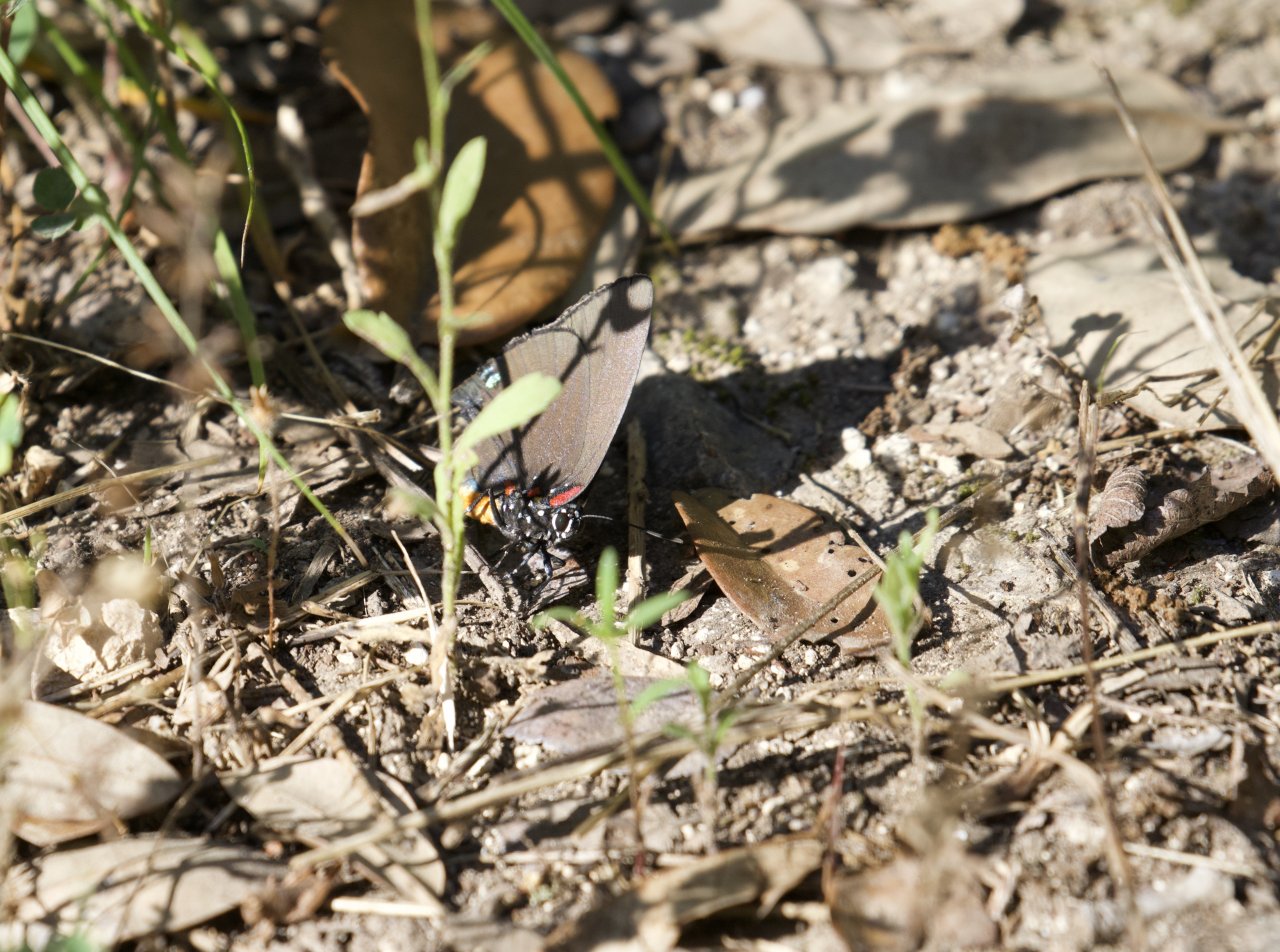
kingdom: Animalia
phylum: Arthropoda
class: Insecta
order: Lepidoptera
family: Lycaenidae
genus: Atlides
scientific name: Atlides halesus
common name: Great Purple Hairstreak
